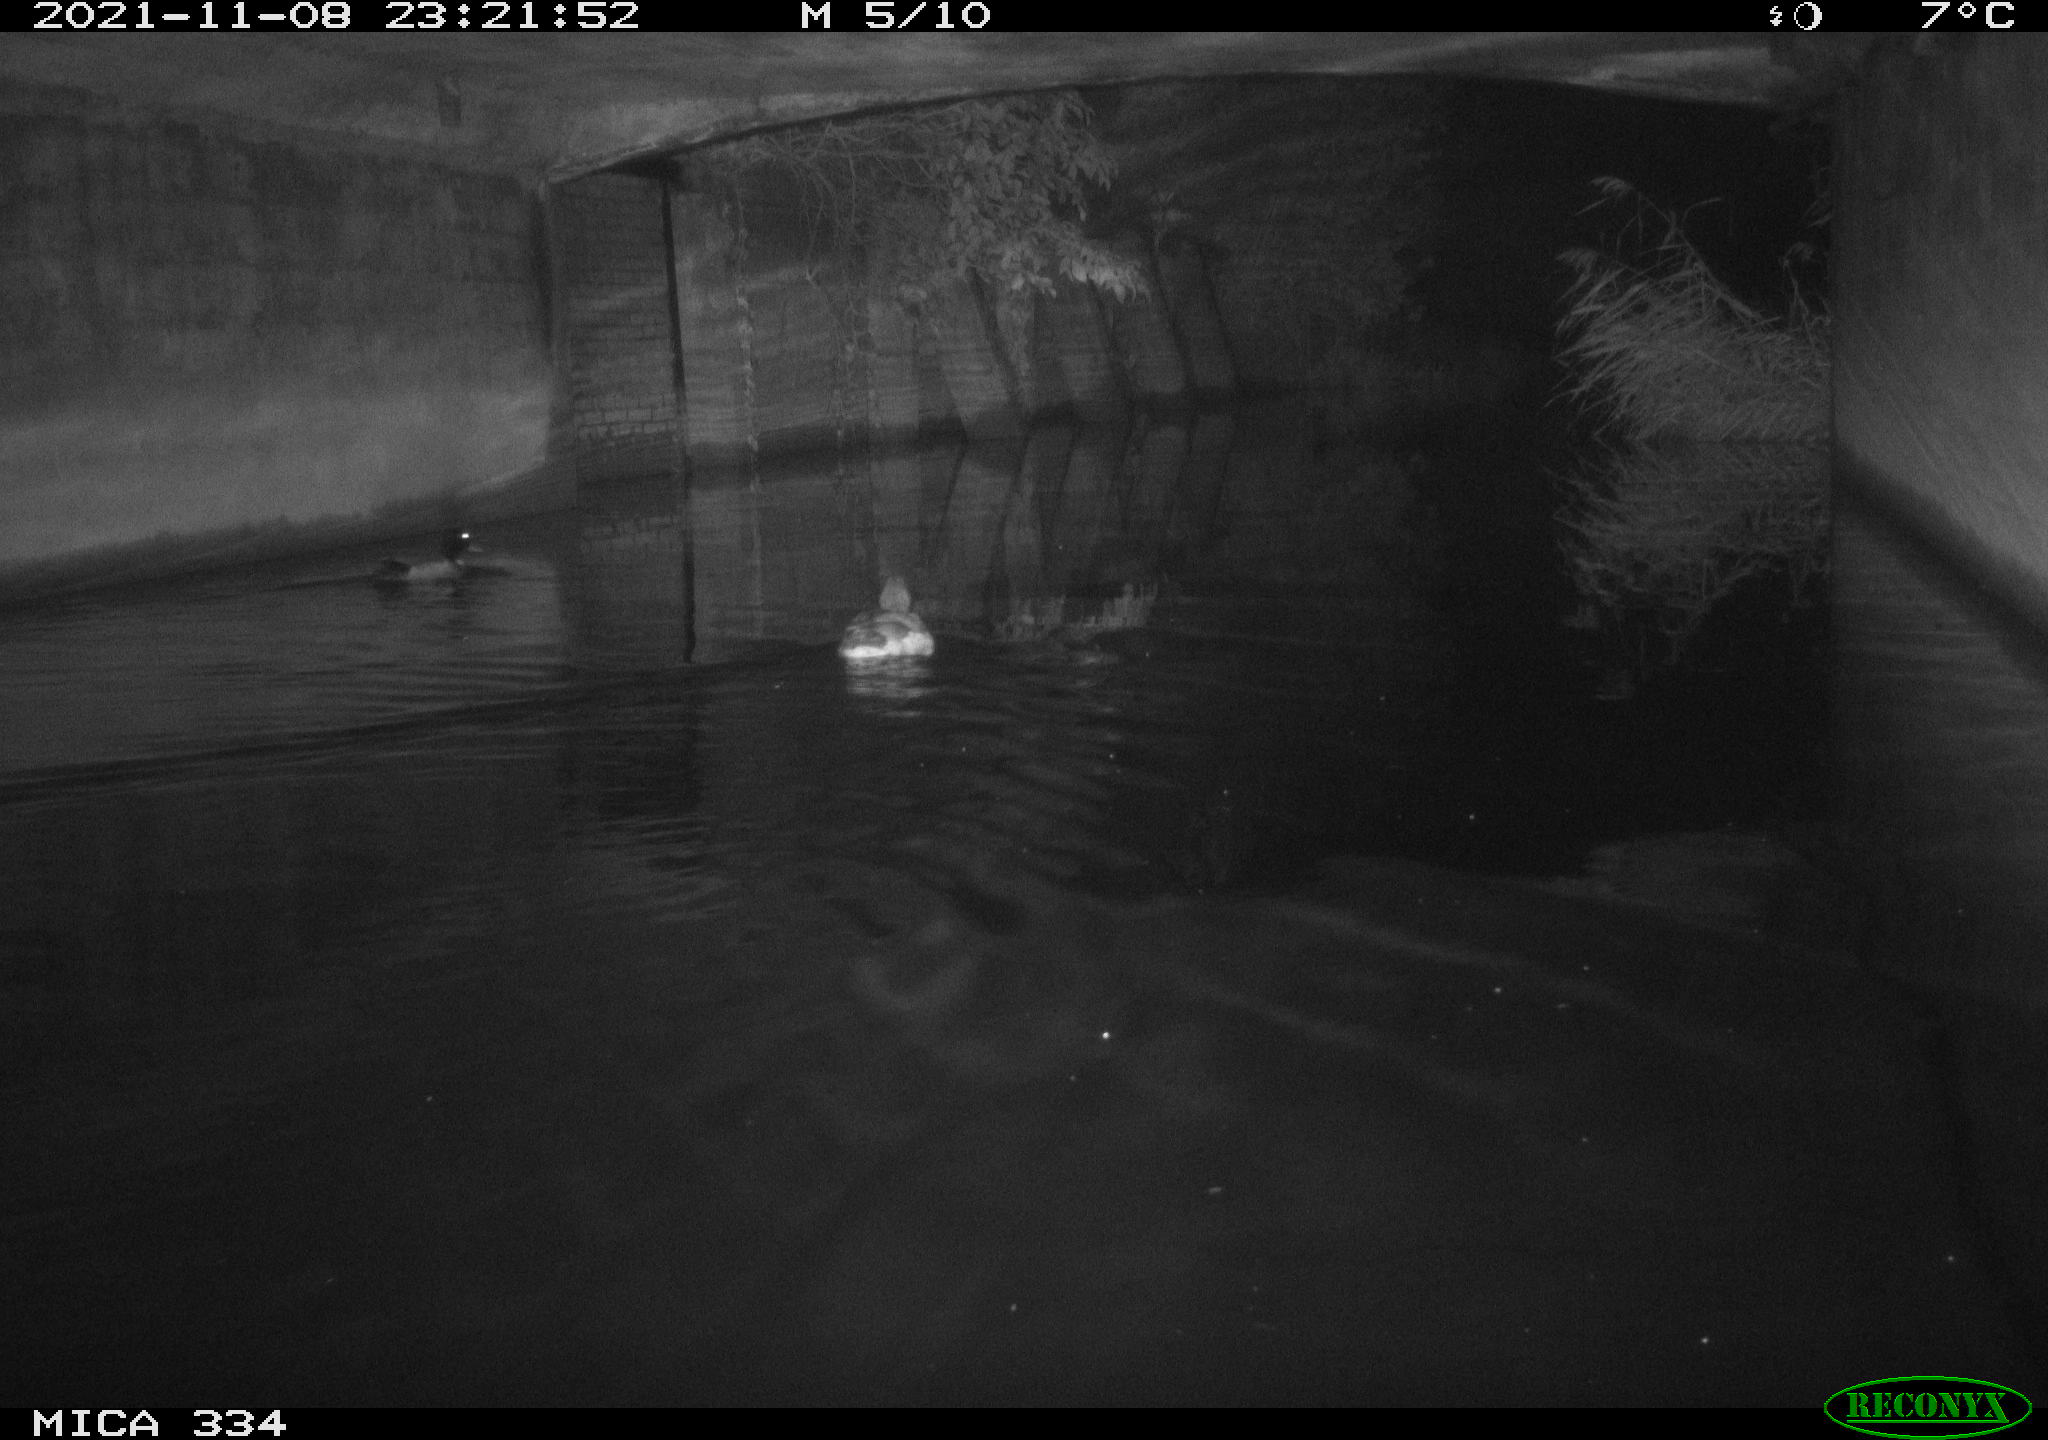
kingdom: Animalia
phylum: Chordata
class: Aves
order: Anseriformes
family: Anatidae
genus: Anas
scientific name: Anas platyrhynchos
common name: Mallard
